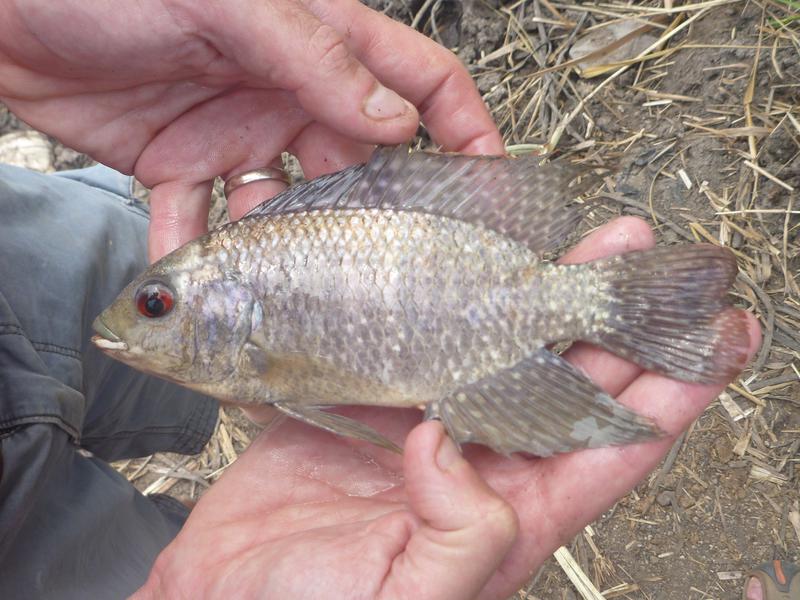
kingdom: Animalia
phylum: Chordata
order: Perciformes
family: Cichlidae
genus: Oreochromis
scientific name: Oreochromis leucostictus
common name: Blue spotted tilapia
